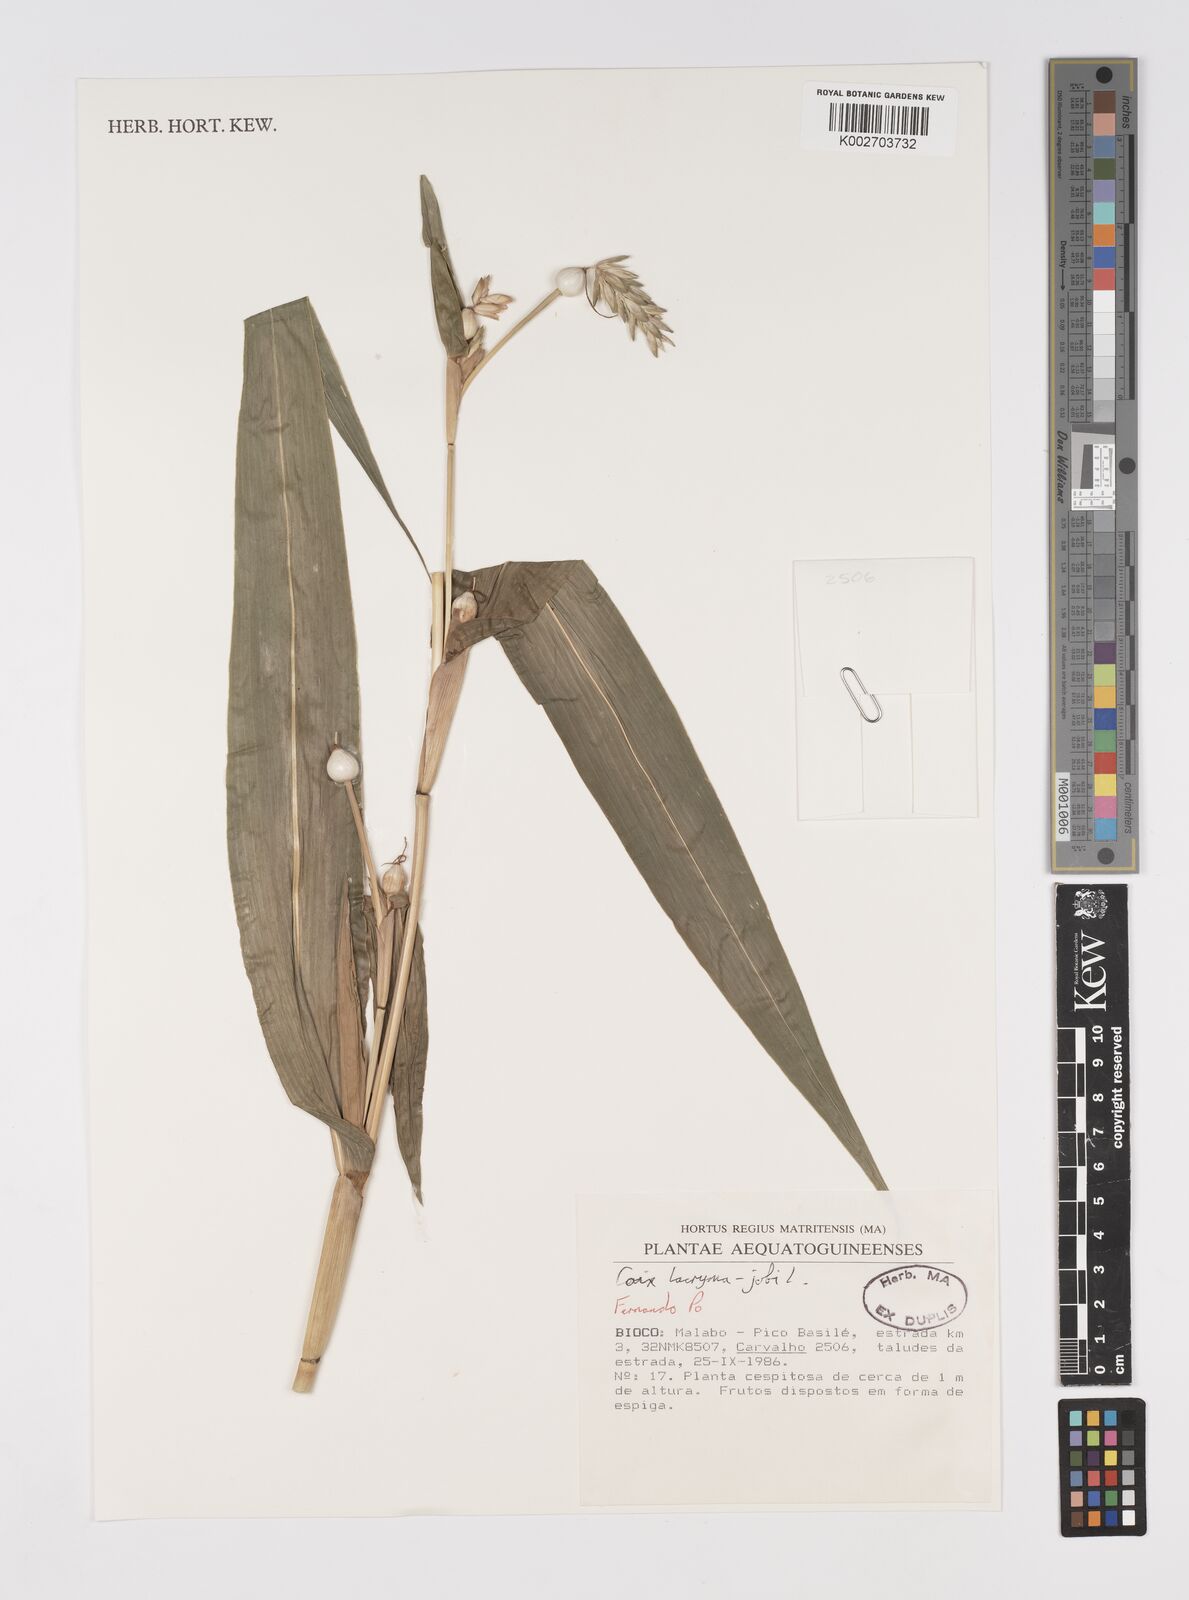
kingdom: Plantae
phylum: Tracheophyta
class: Liliopsida
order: Poales
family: Poaceae
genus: Coix
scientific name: Coix lacryma-jobi
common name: Job's tears
